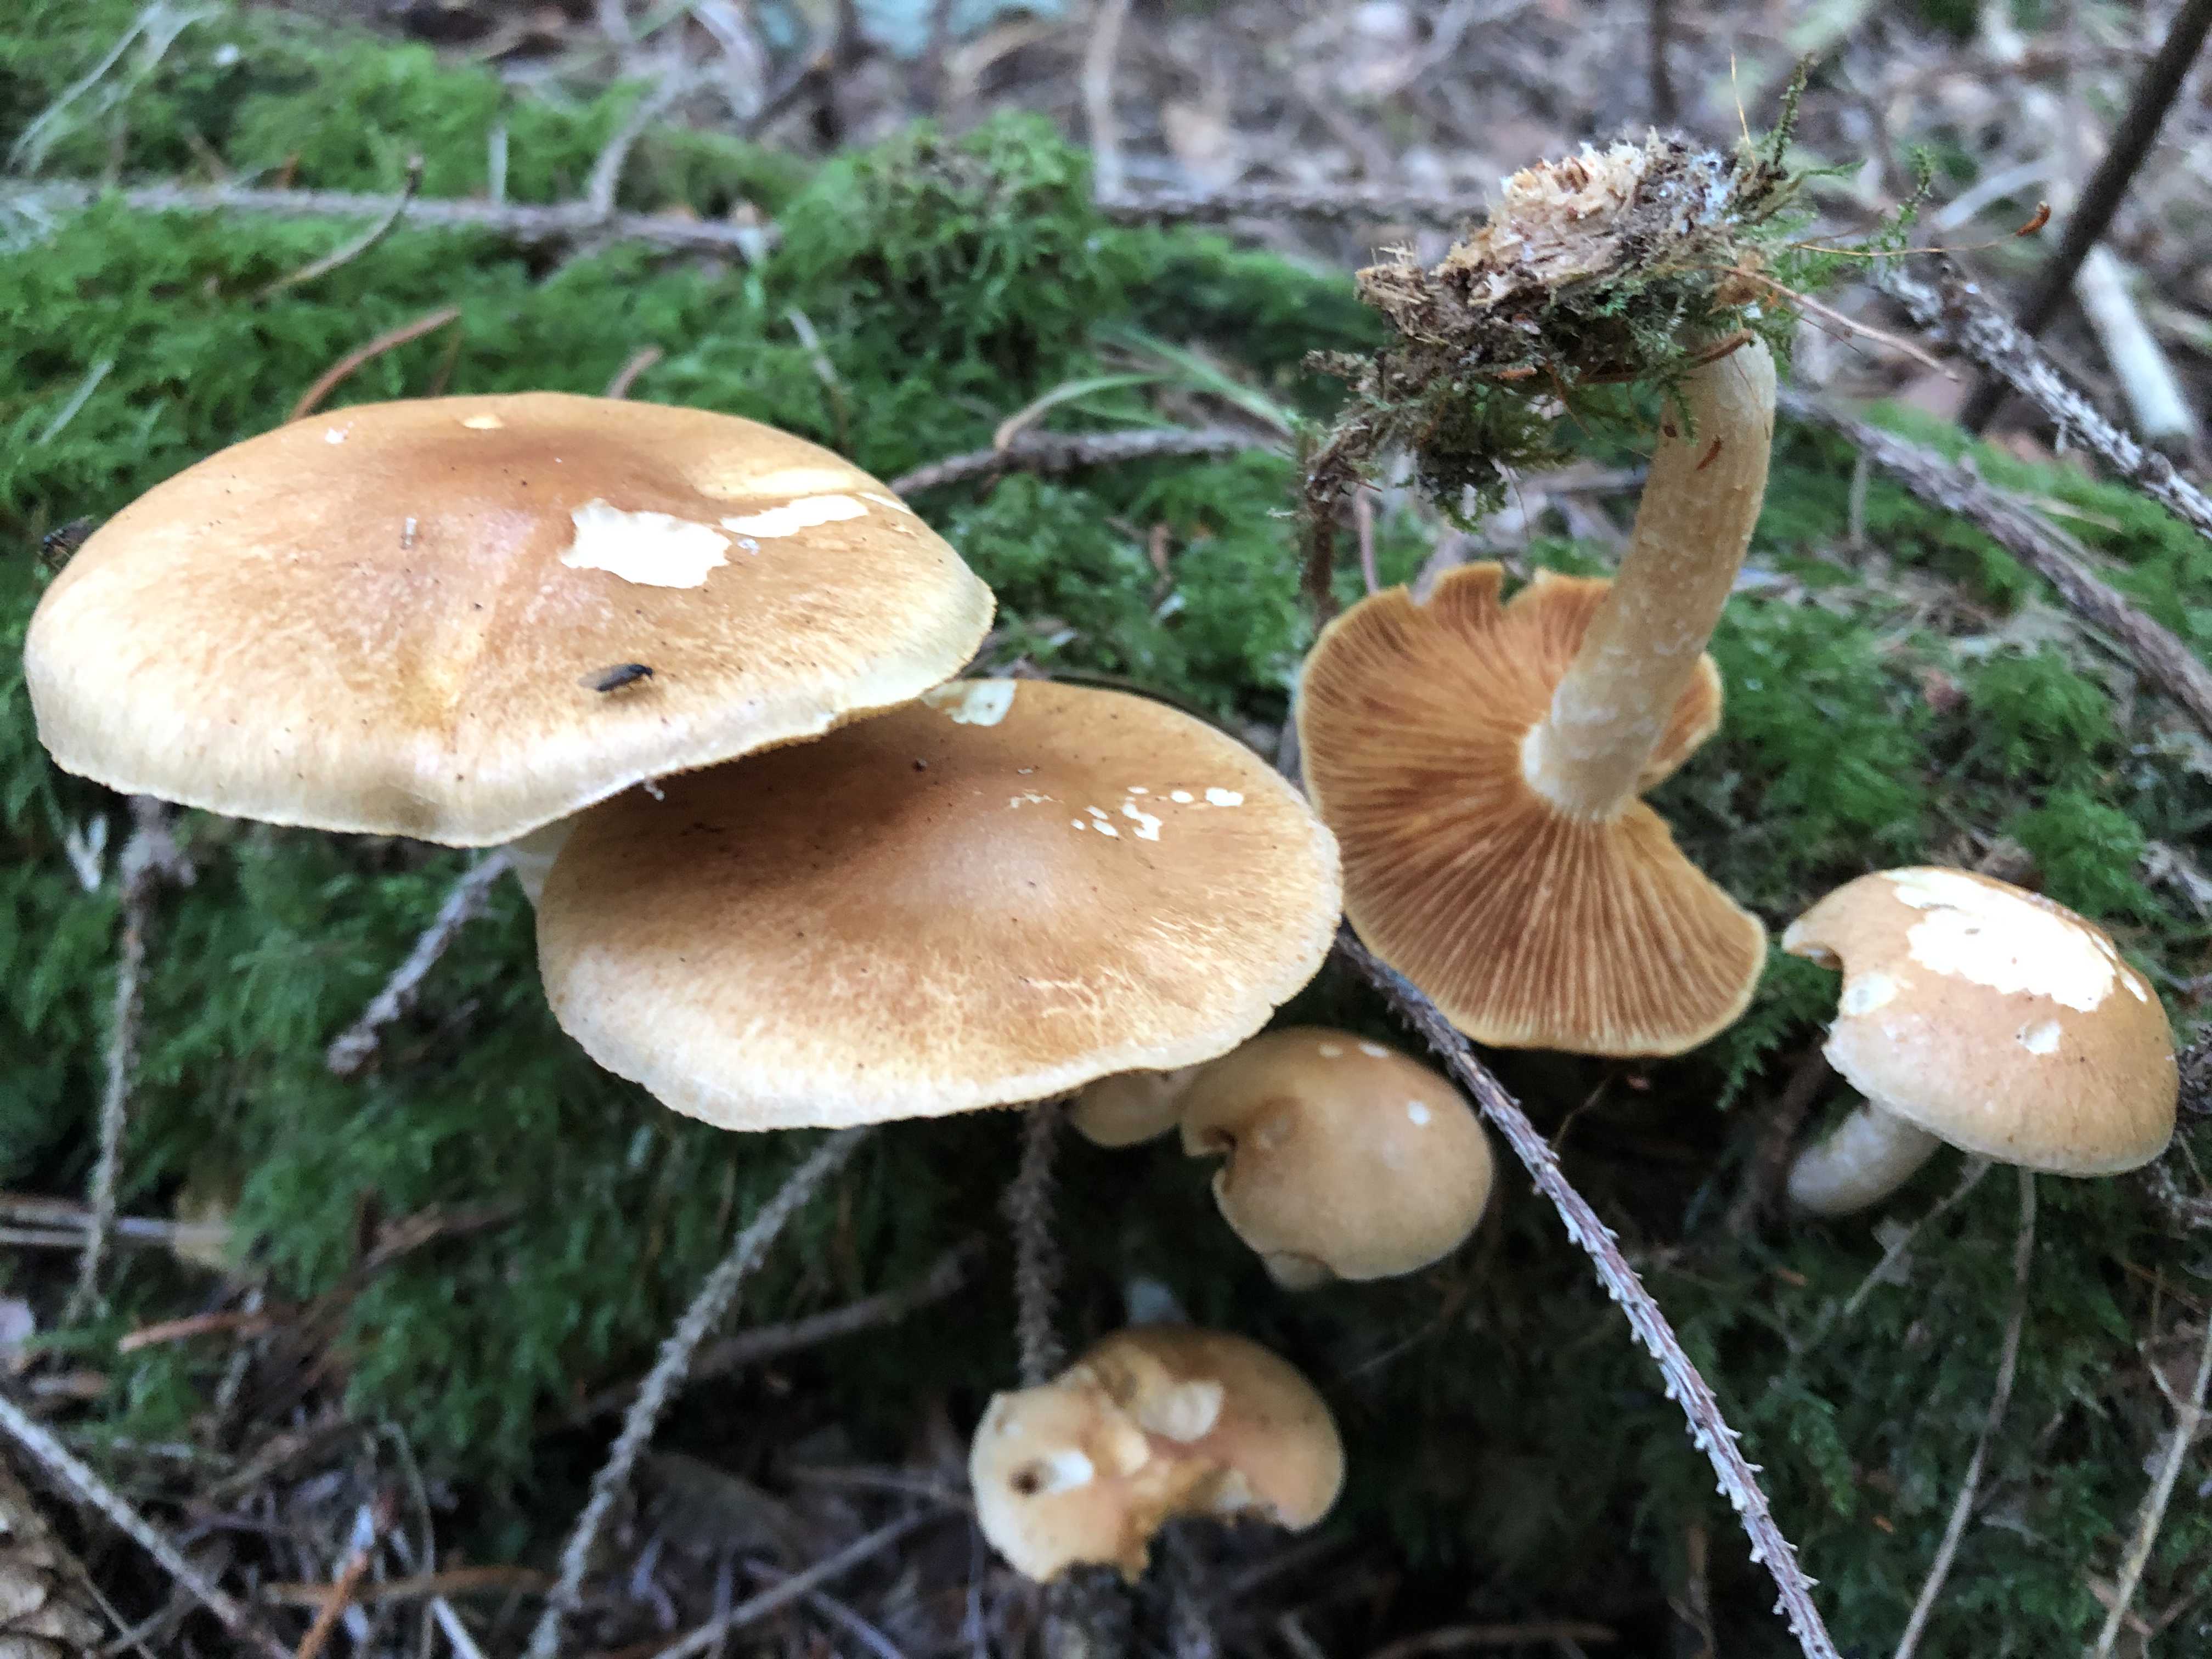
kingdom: Fungi
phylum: Basidiomycota
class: Agaricomycetes
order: Agaricales
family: Hymenogastraceae
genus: Gymnopilus
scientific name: Gymnopilus penetrans
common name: plettet flammehat
